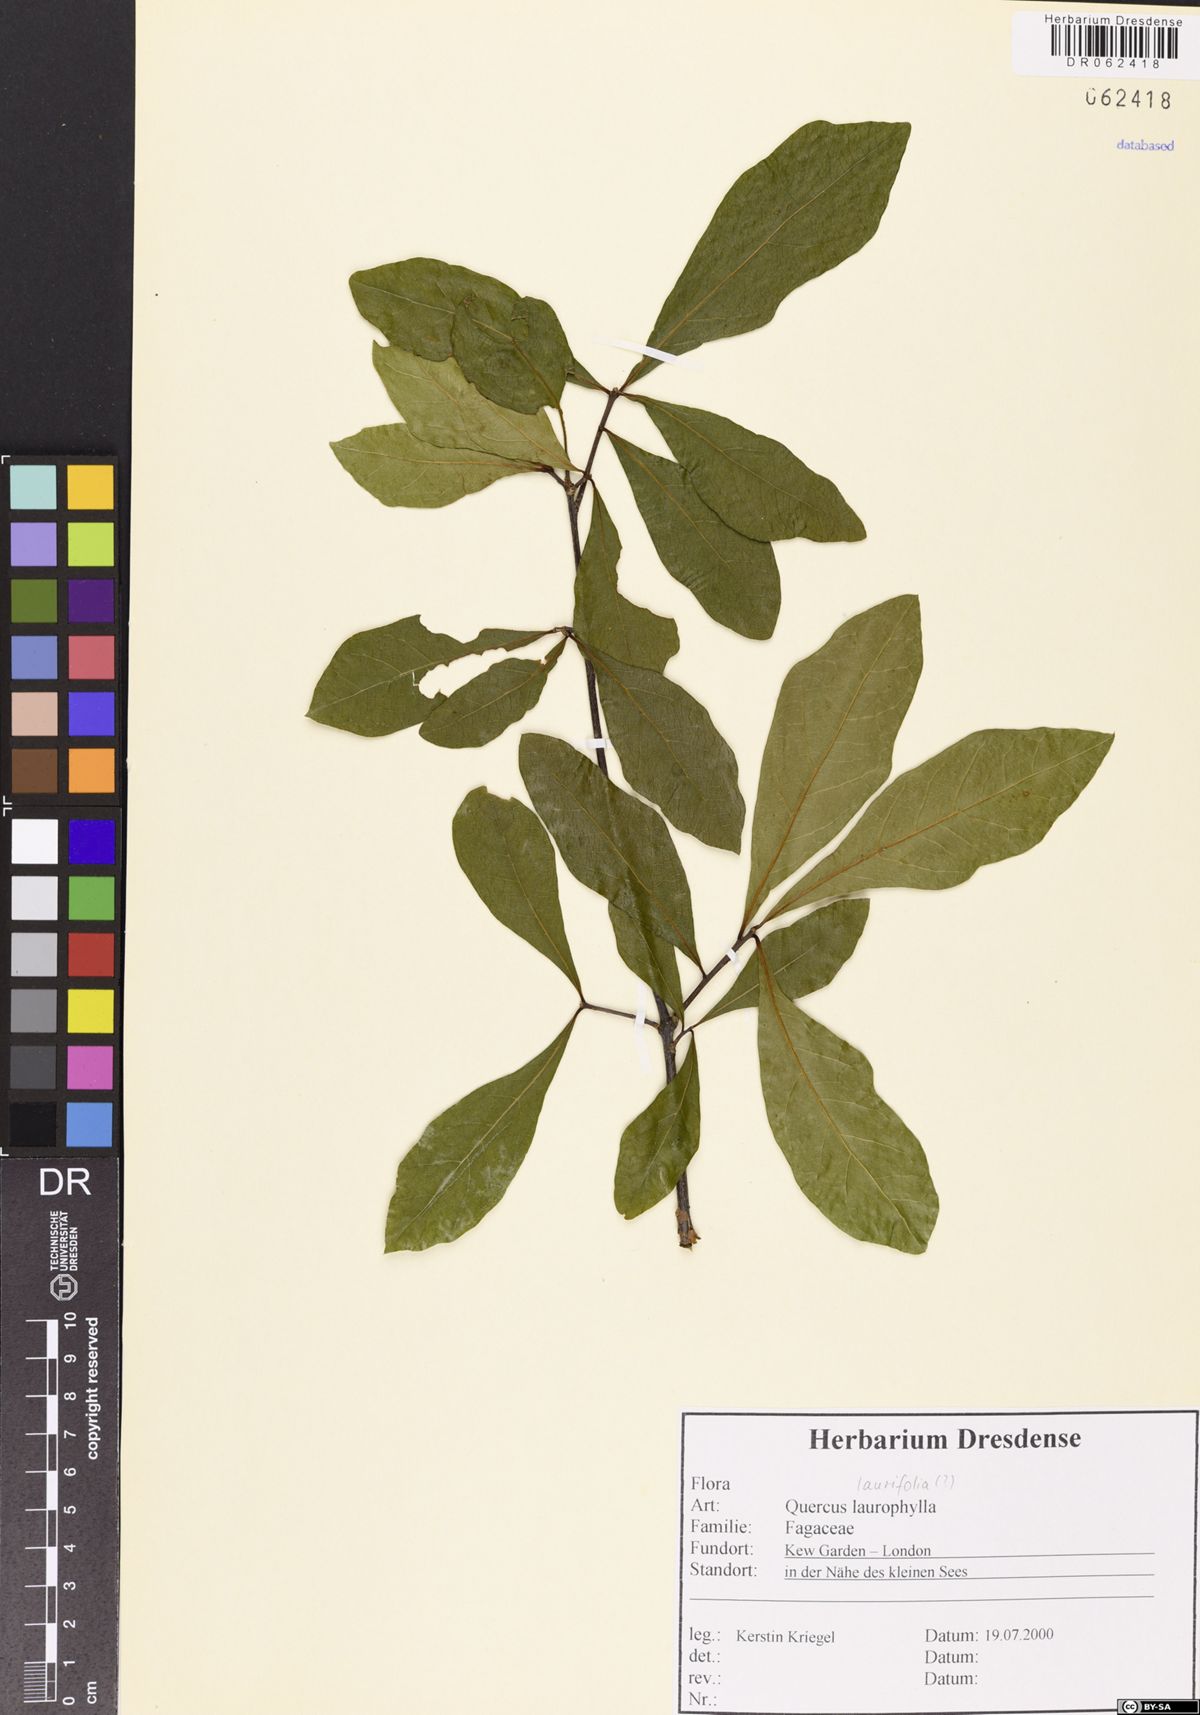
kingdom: Plantae
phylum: Tracheophyta
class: Magnoliopsida
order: Fagales
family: Fagaceae
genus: Quercus
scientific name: Quercus laurifolia
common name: Swamp laurel oak
